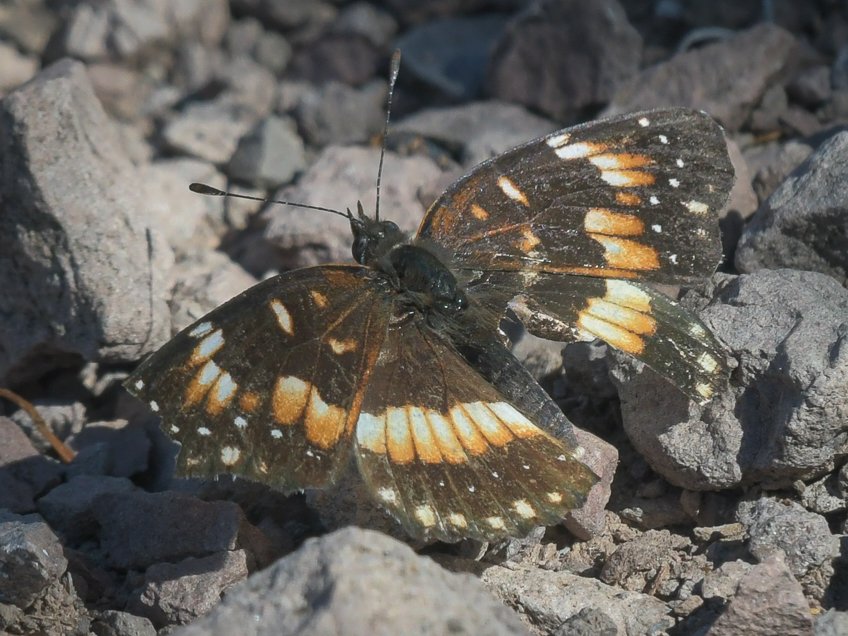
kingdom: Animalia
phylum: Arthropoda
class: Insecta
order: Lepidoptera
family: Nymphalidae
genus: Chlosyne
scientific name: Chlosyne californica
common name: California Patch
